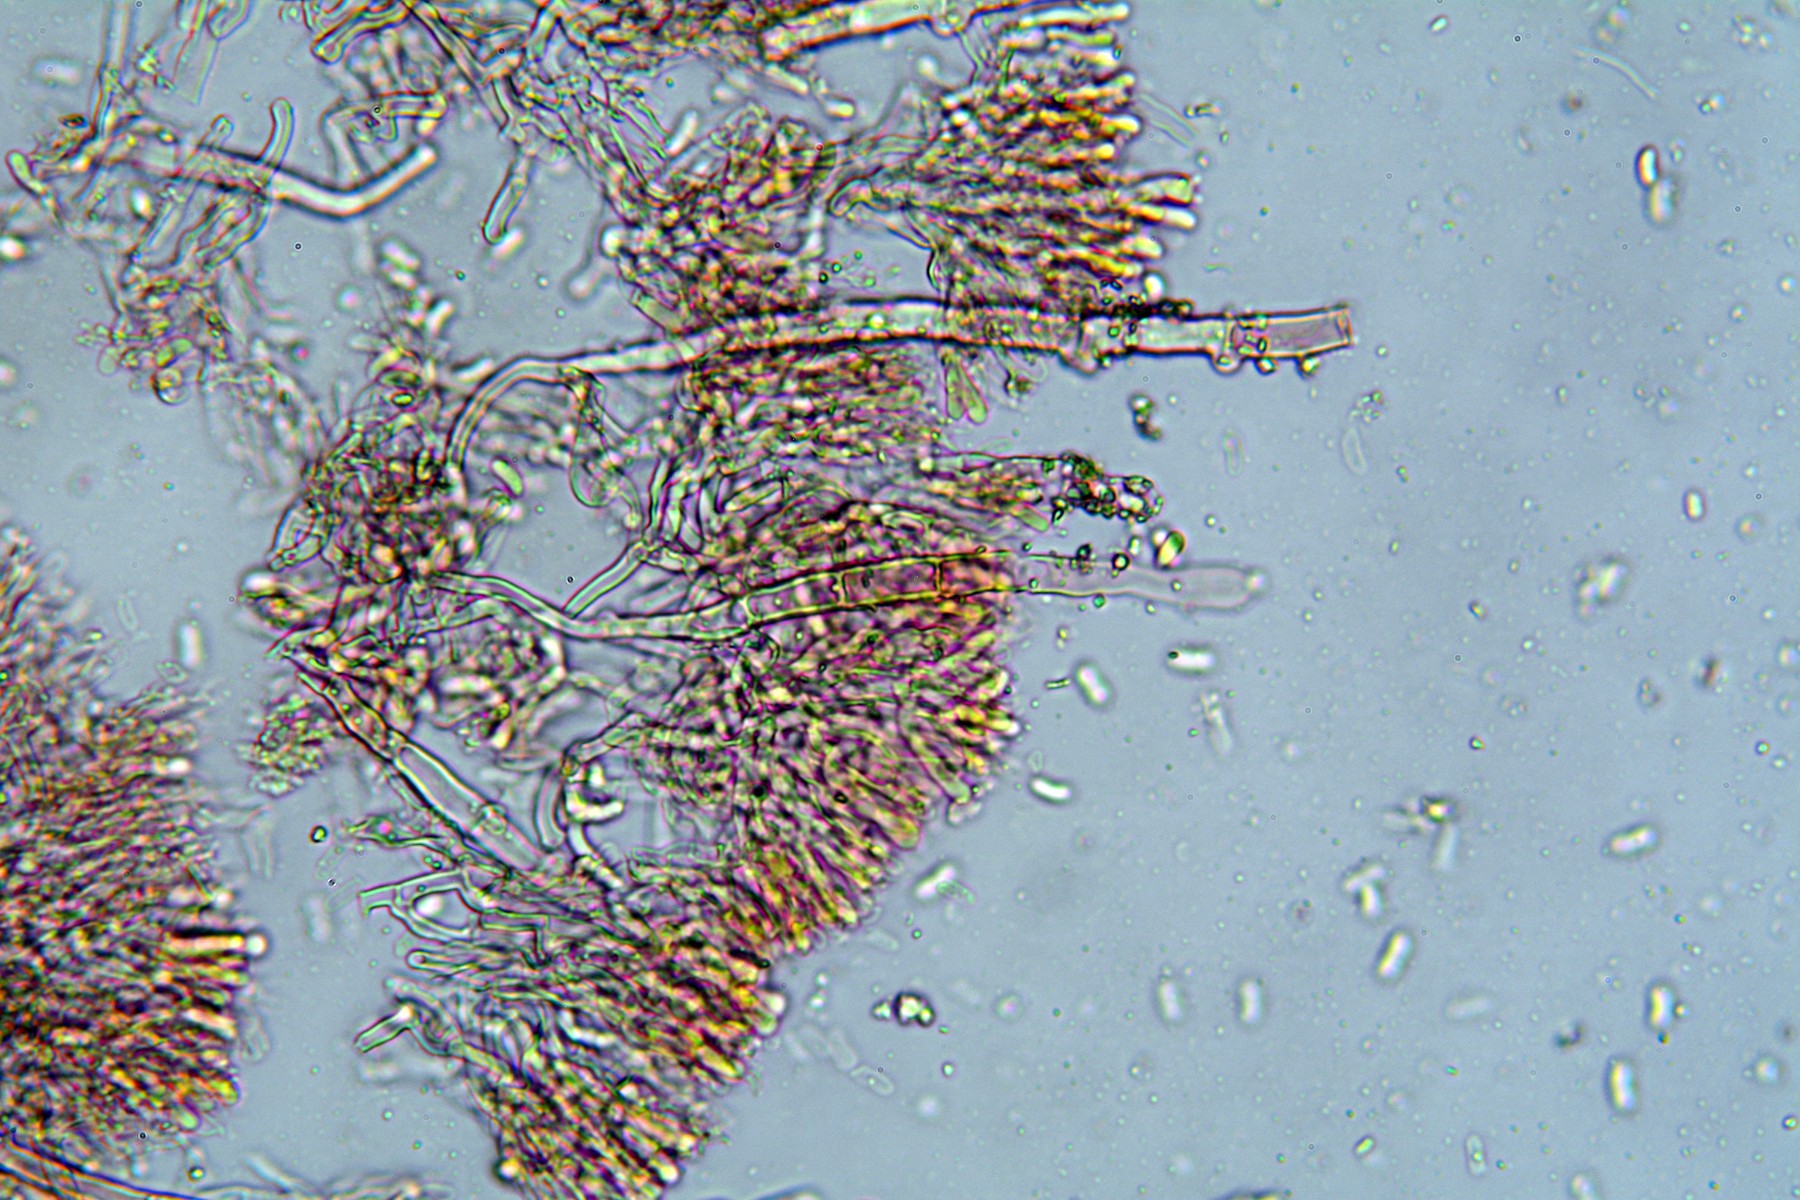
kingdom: Fungi
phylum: Basidiomycota
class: Agaricomycetes
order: Polyporales
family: Hyphodermataceae
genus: Hyphoderma
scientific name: Hyphoderma setigerum
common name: håret kalkskind
